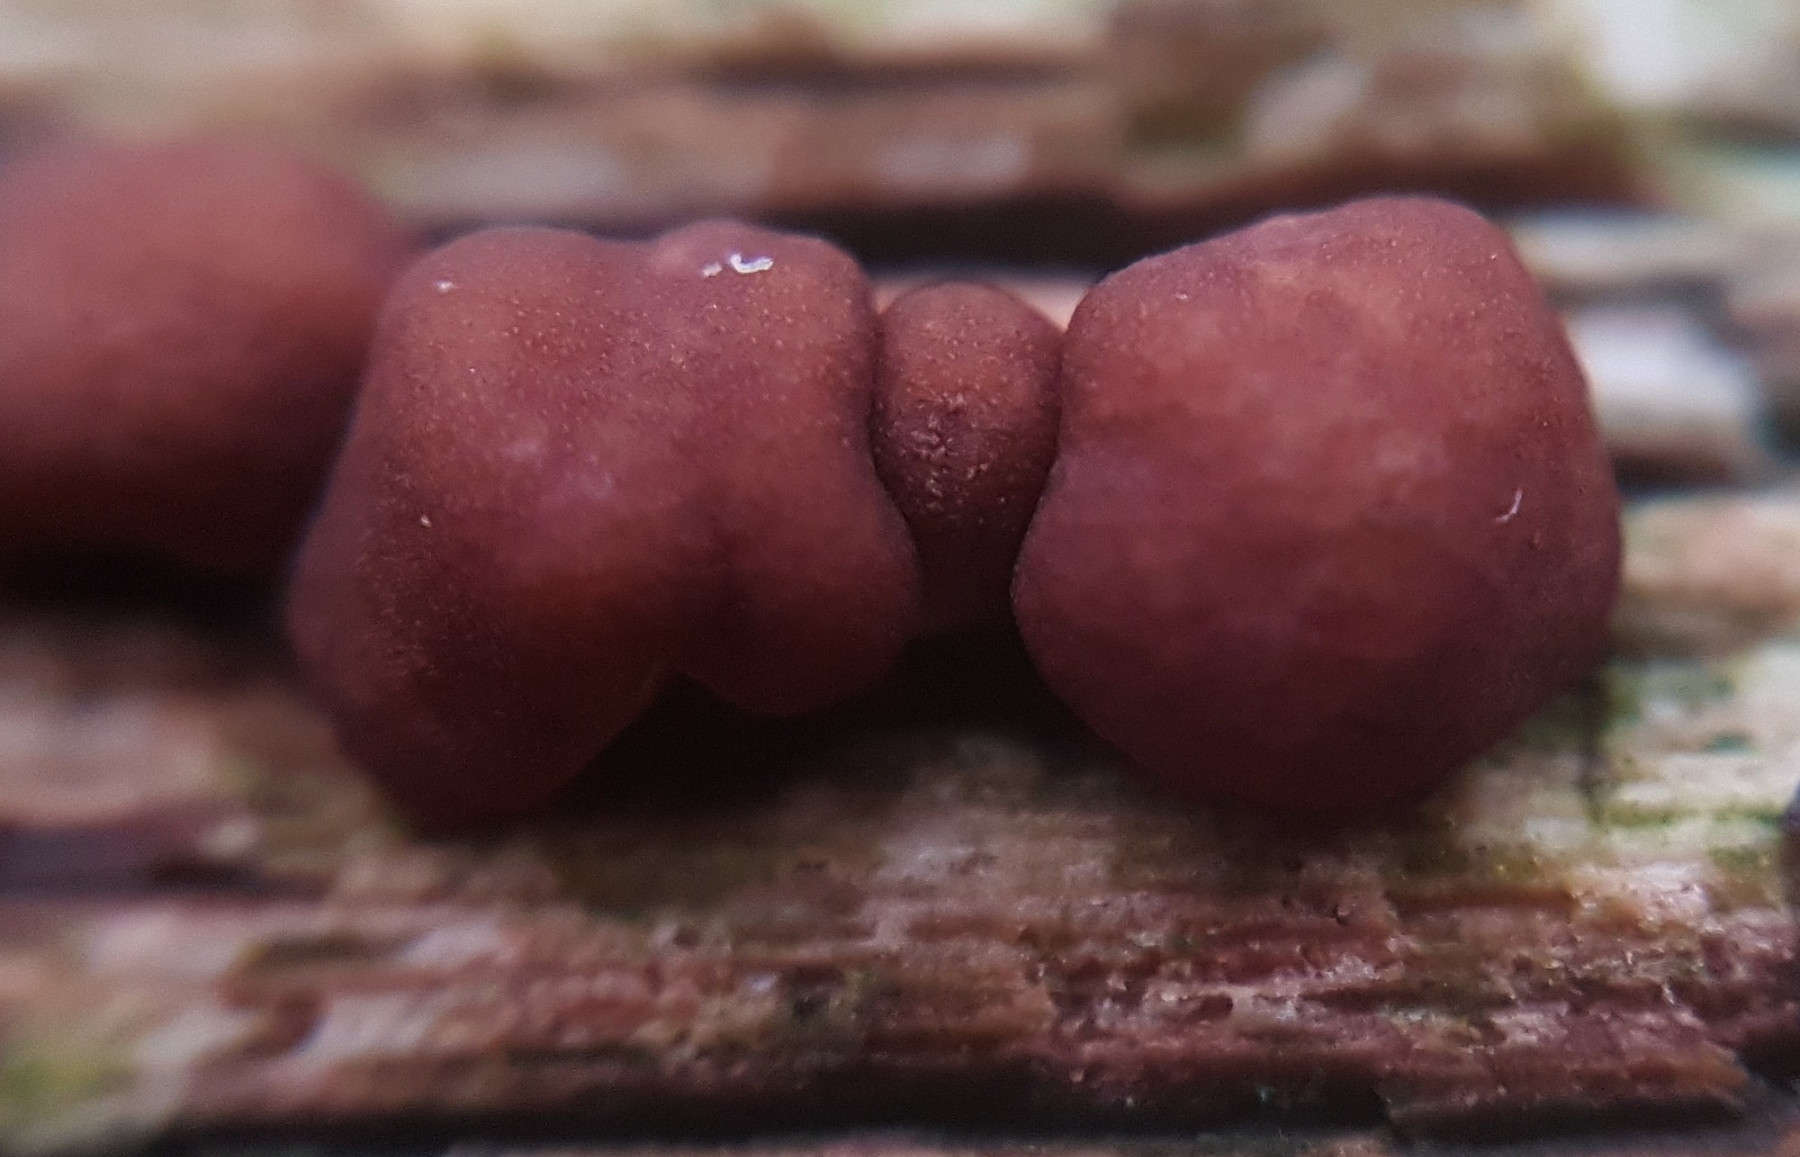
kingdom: Fungi
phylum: Ascomycota
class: Sordariomycetes
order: Hypocreales
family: Hypocreaceae
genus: Trichoderma
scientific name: Trichoderma europaeum
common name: rosabrun kødkerne
